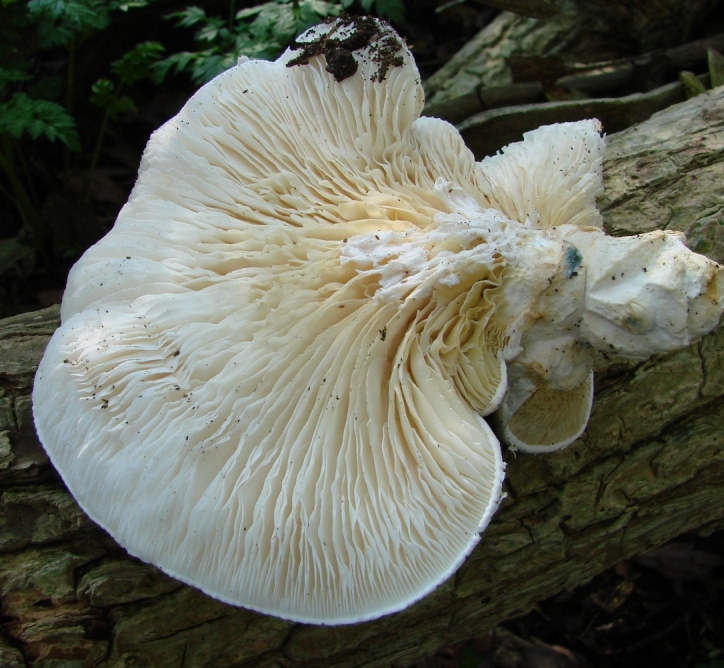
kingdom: Fungi
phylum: Basidiomycota
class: Agaricomycetes
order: Agaricales
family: Pleurotaceae
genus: Pleurotus
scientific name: Pleurotus dryinus
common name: korkagtig østershat
